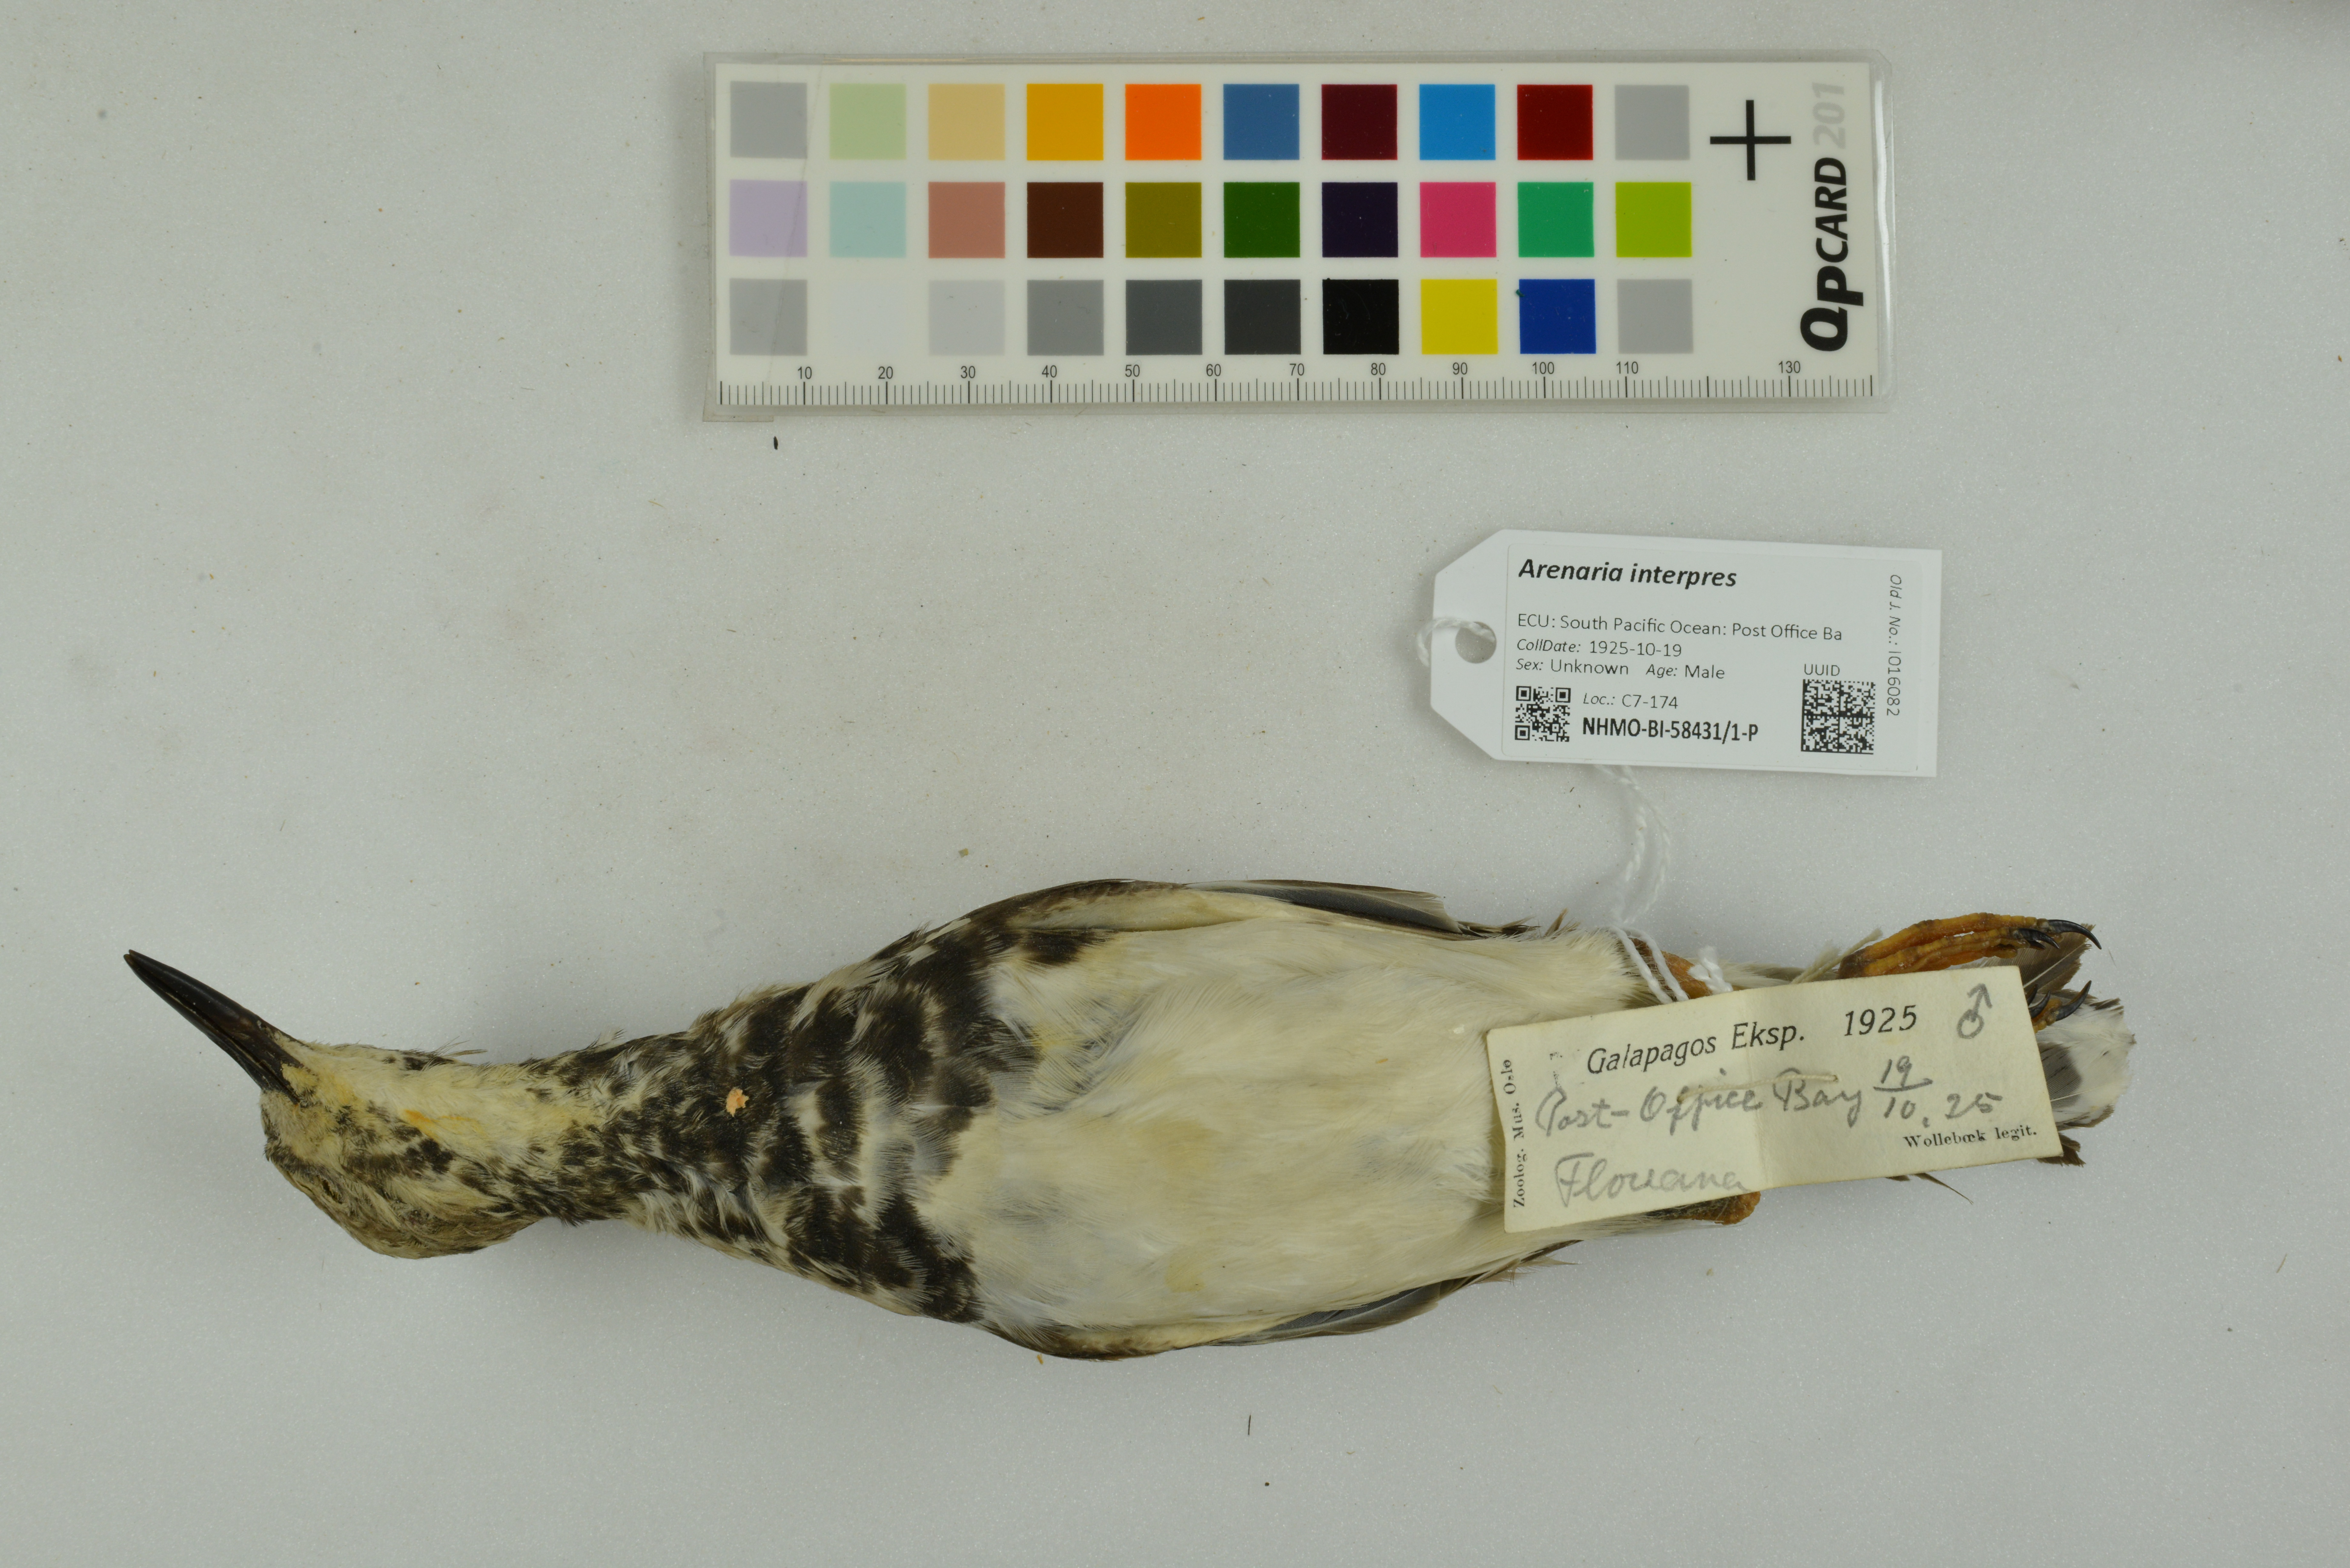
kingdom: Animalia
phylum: Chordata
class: Aves
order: Charadriiformes
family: Scolopacidae
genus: Arenaria
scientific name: Arenaria interpres
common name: Ruddy turnstone
